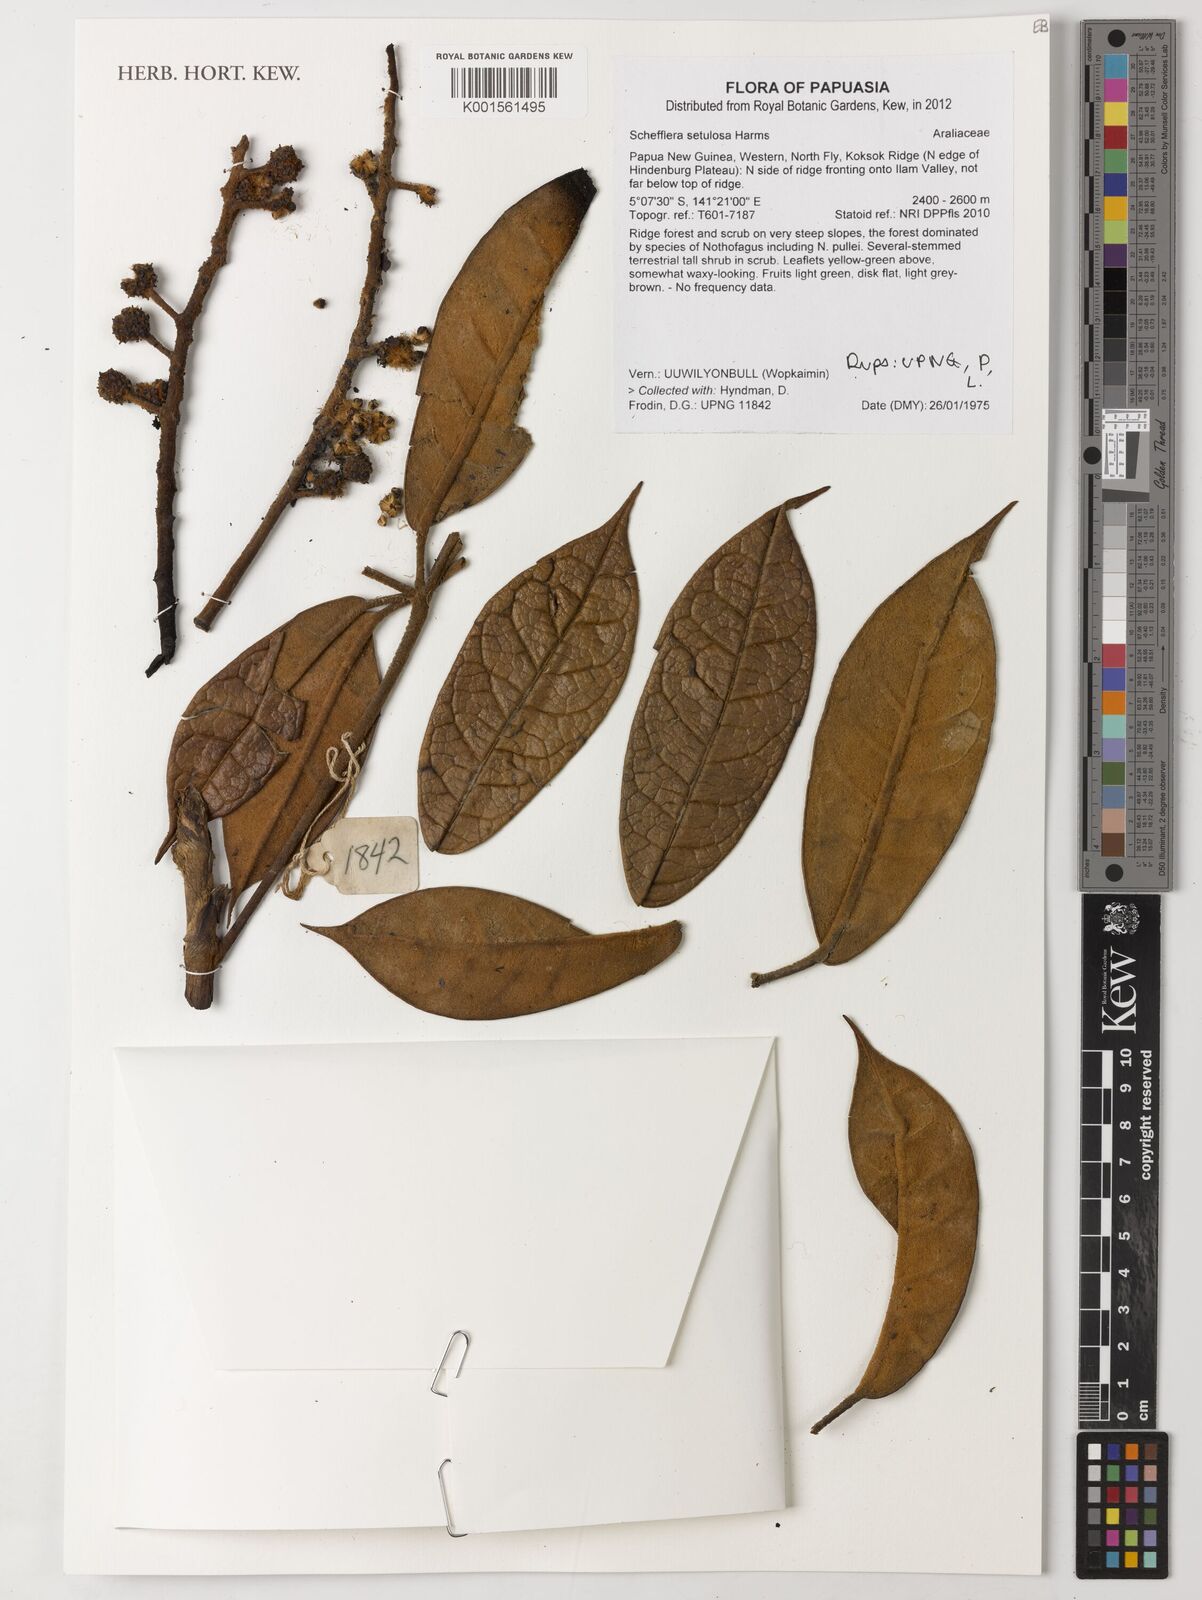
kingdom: Plantae
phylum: Tracheophyta
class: Magnoliopsida
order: Apiales
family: Araliaceae
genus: Heptapleurum
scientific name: Heptapleurum setulosum
